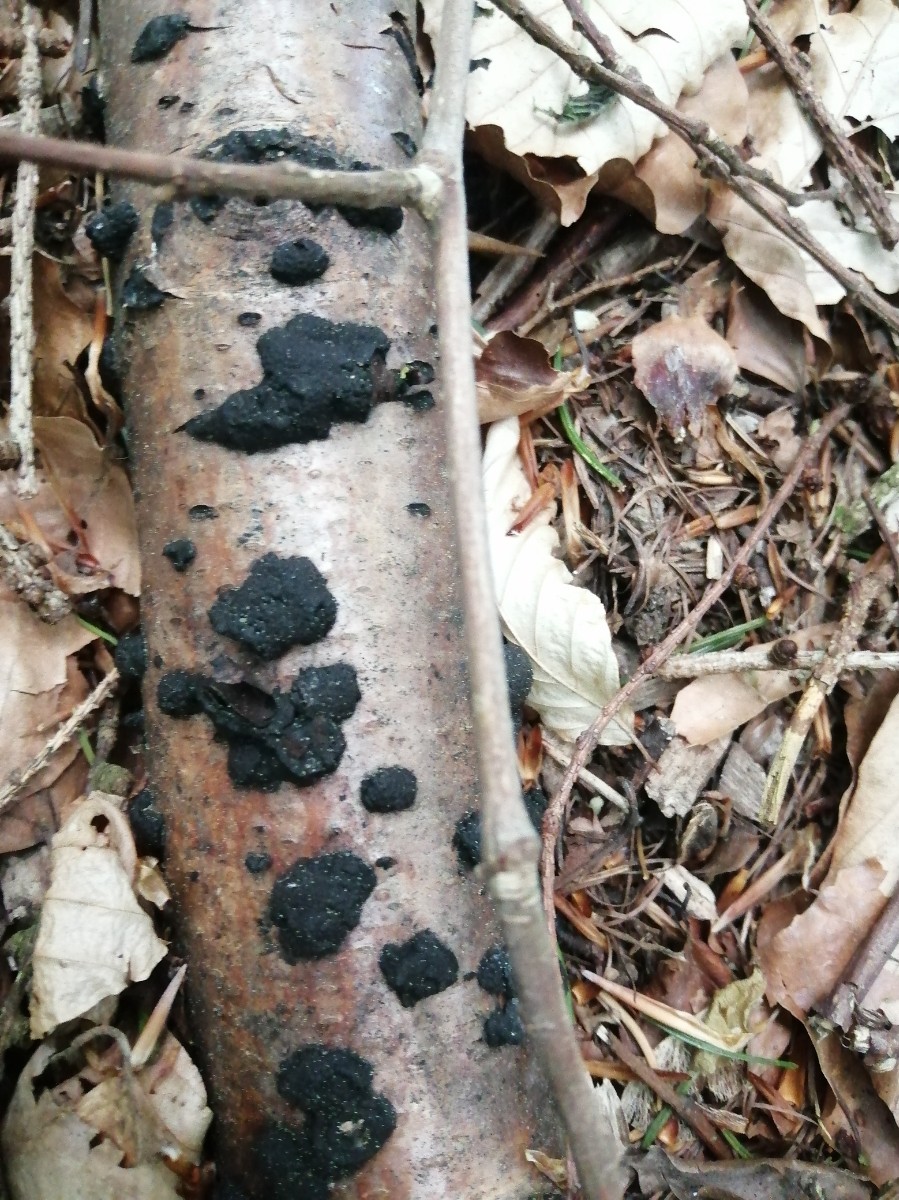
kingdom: Fungi
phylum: Ascomycota
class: Sordariomycetes
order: Xylariales
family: Hypoxylaceae
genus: Jackrogersella
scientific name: Jackrogersella multiformis
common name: foranderlig kulbær
